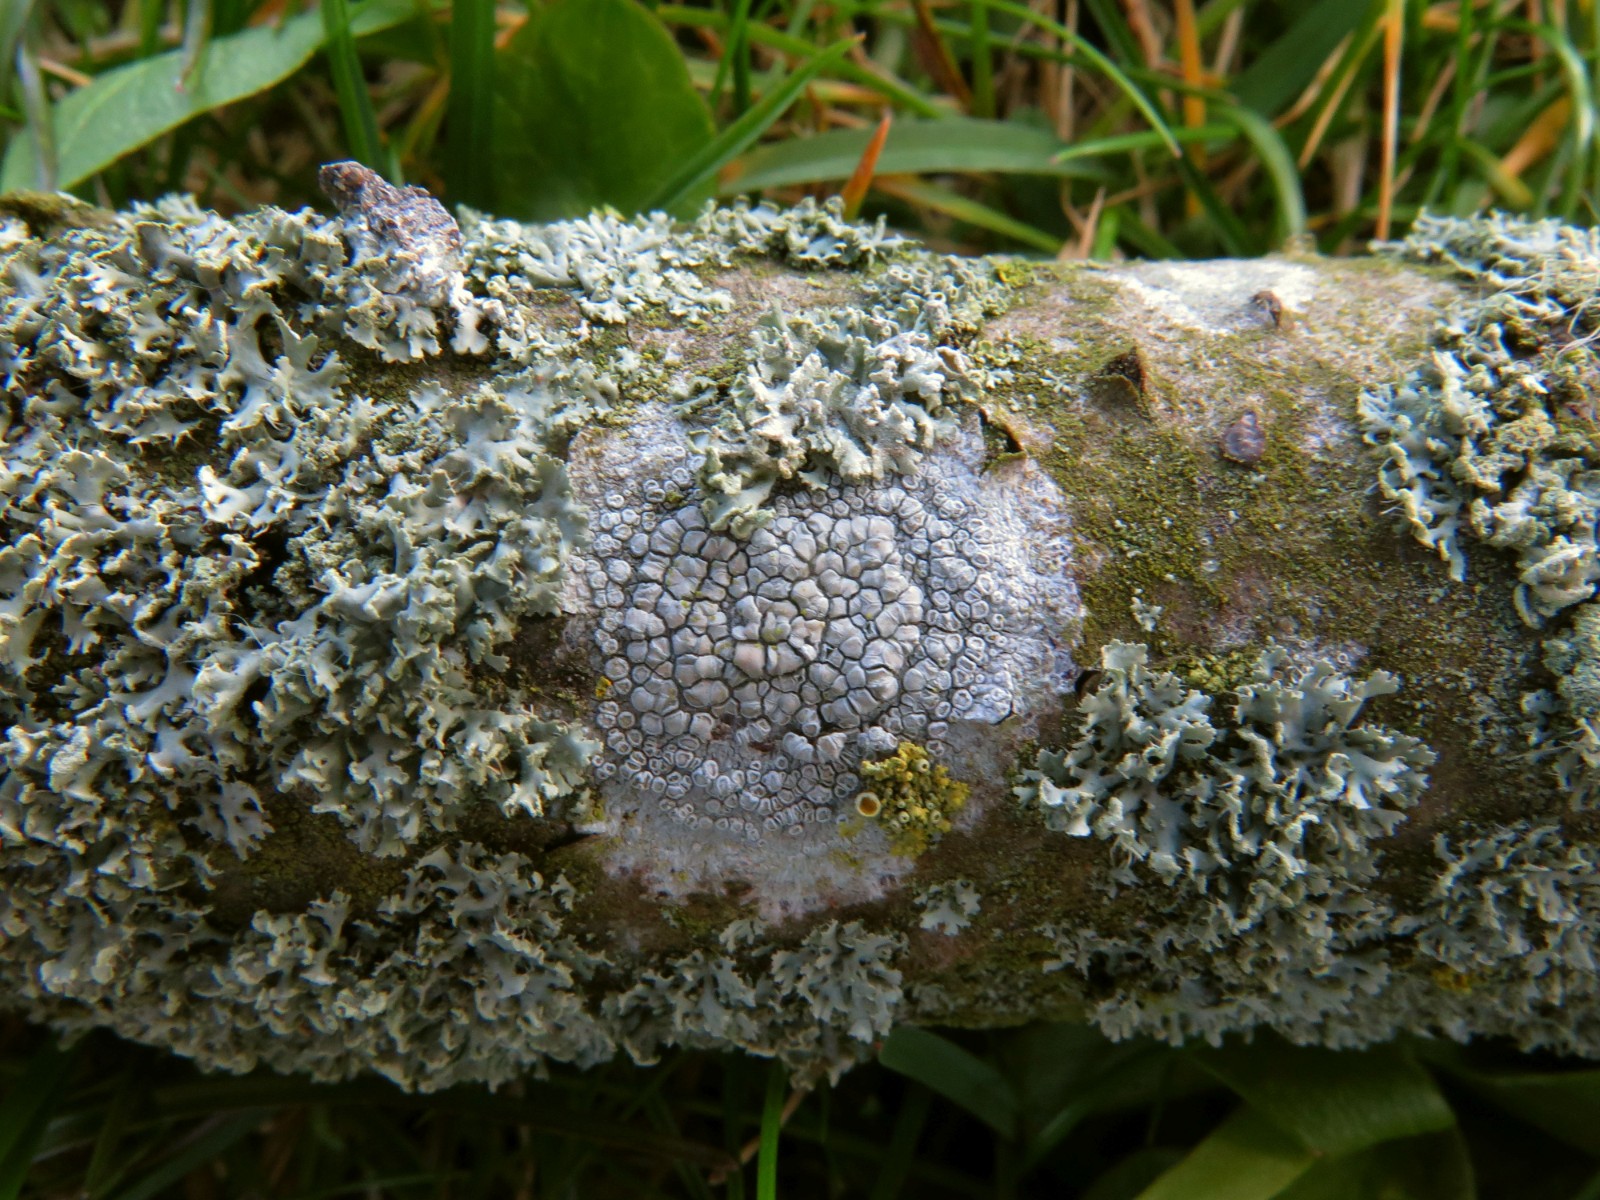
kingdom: Fungi
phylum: Ascomycota
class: Lecanoromycetes
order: Lecanorales
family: Lecanoraceae
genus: Glaucomaria
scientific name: Glaucomaria carpinea
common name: hviddugget kantskivelav
